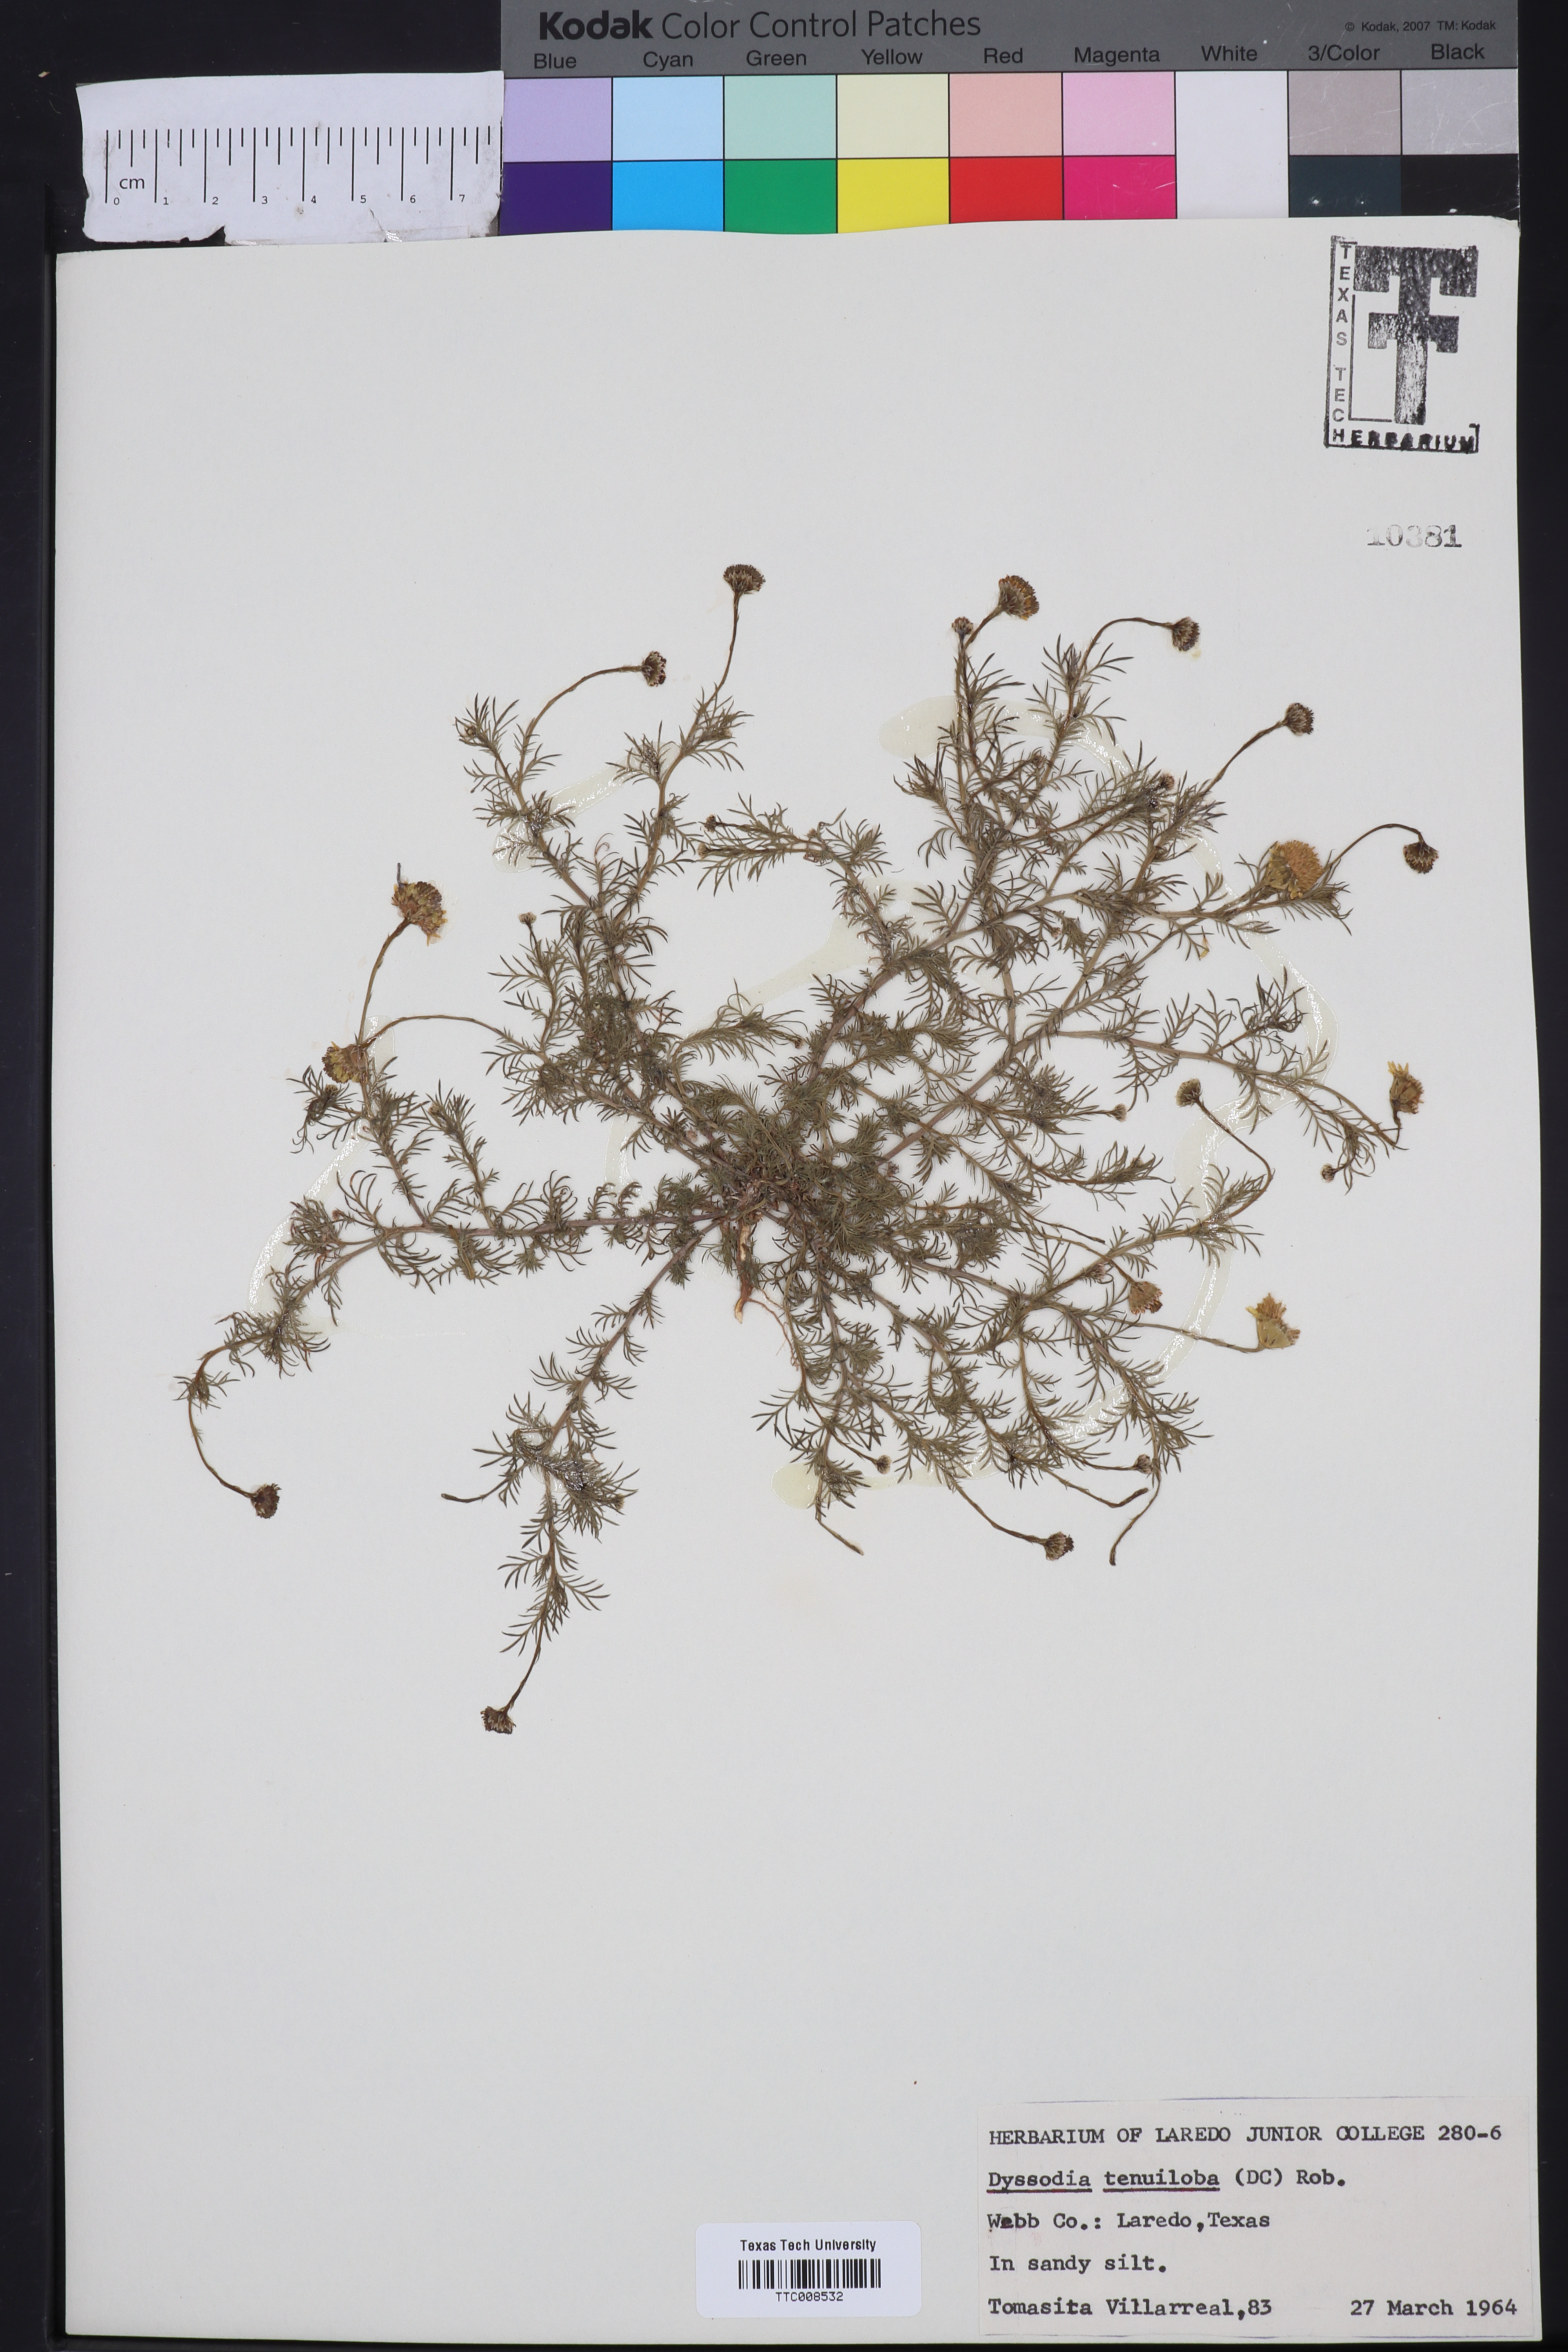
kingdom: Plantae
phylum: Tracheophyta
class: Magnoliopsida
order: Asterales
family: Asteraceae
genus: Thymophylla
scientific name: Thymophylla tenuiloba
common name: Dahlberg's daisy
